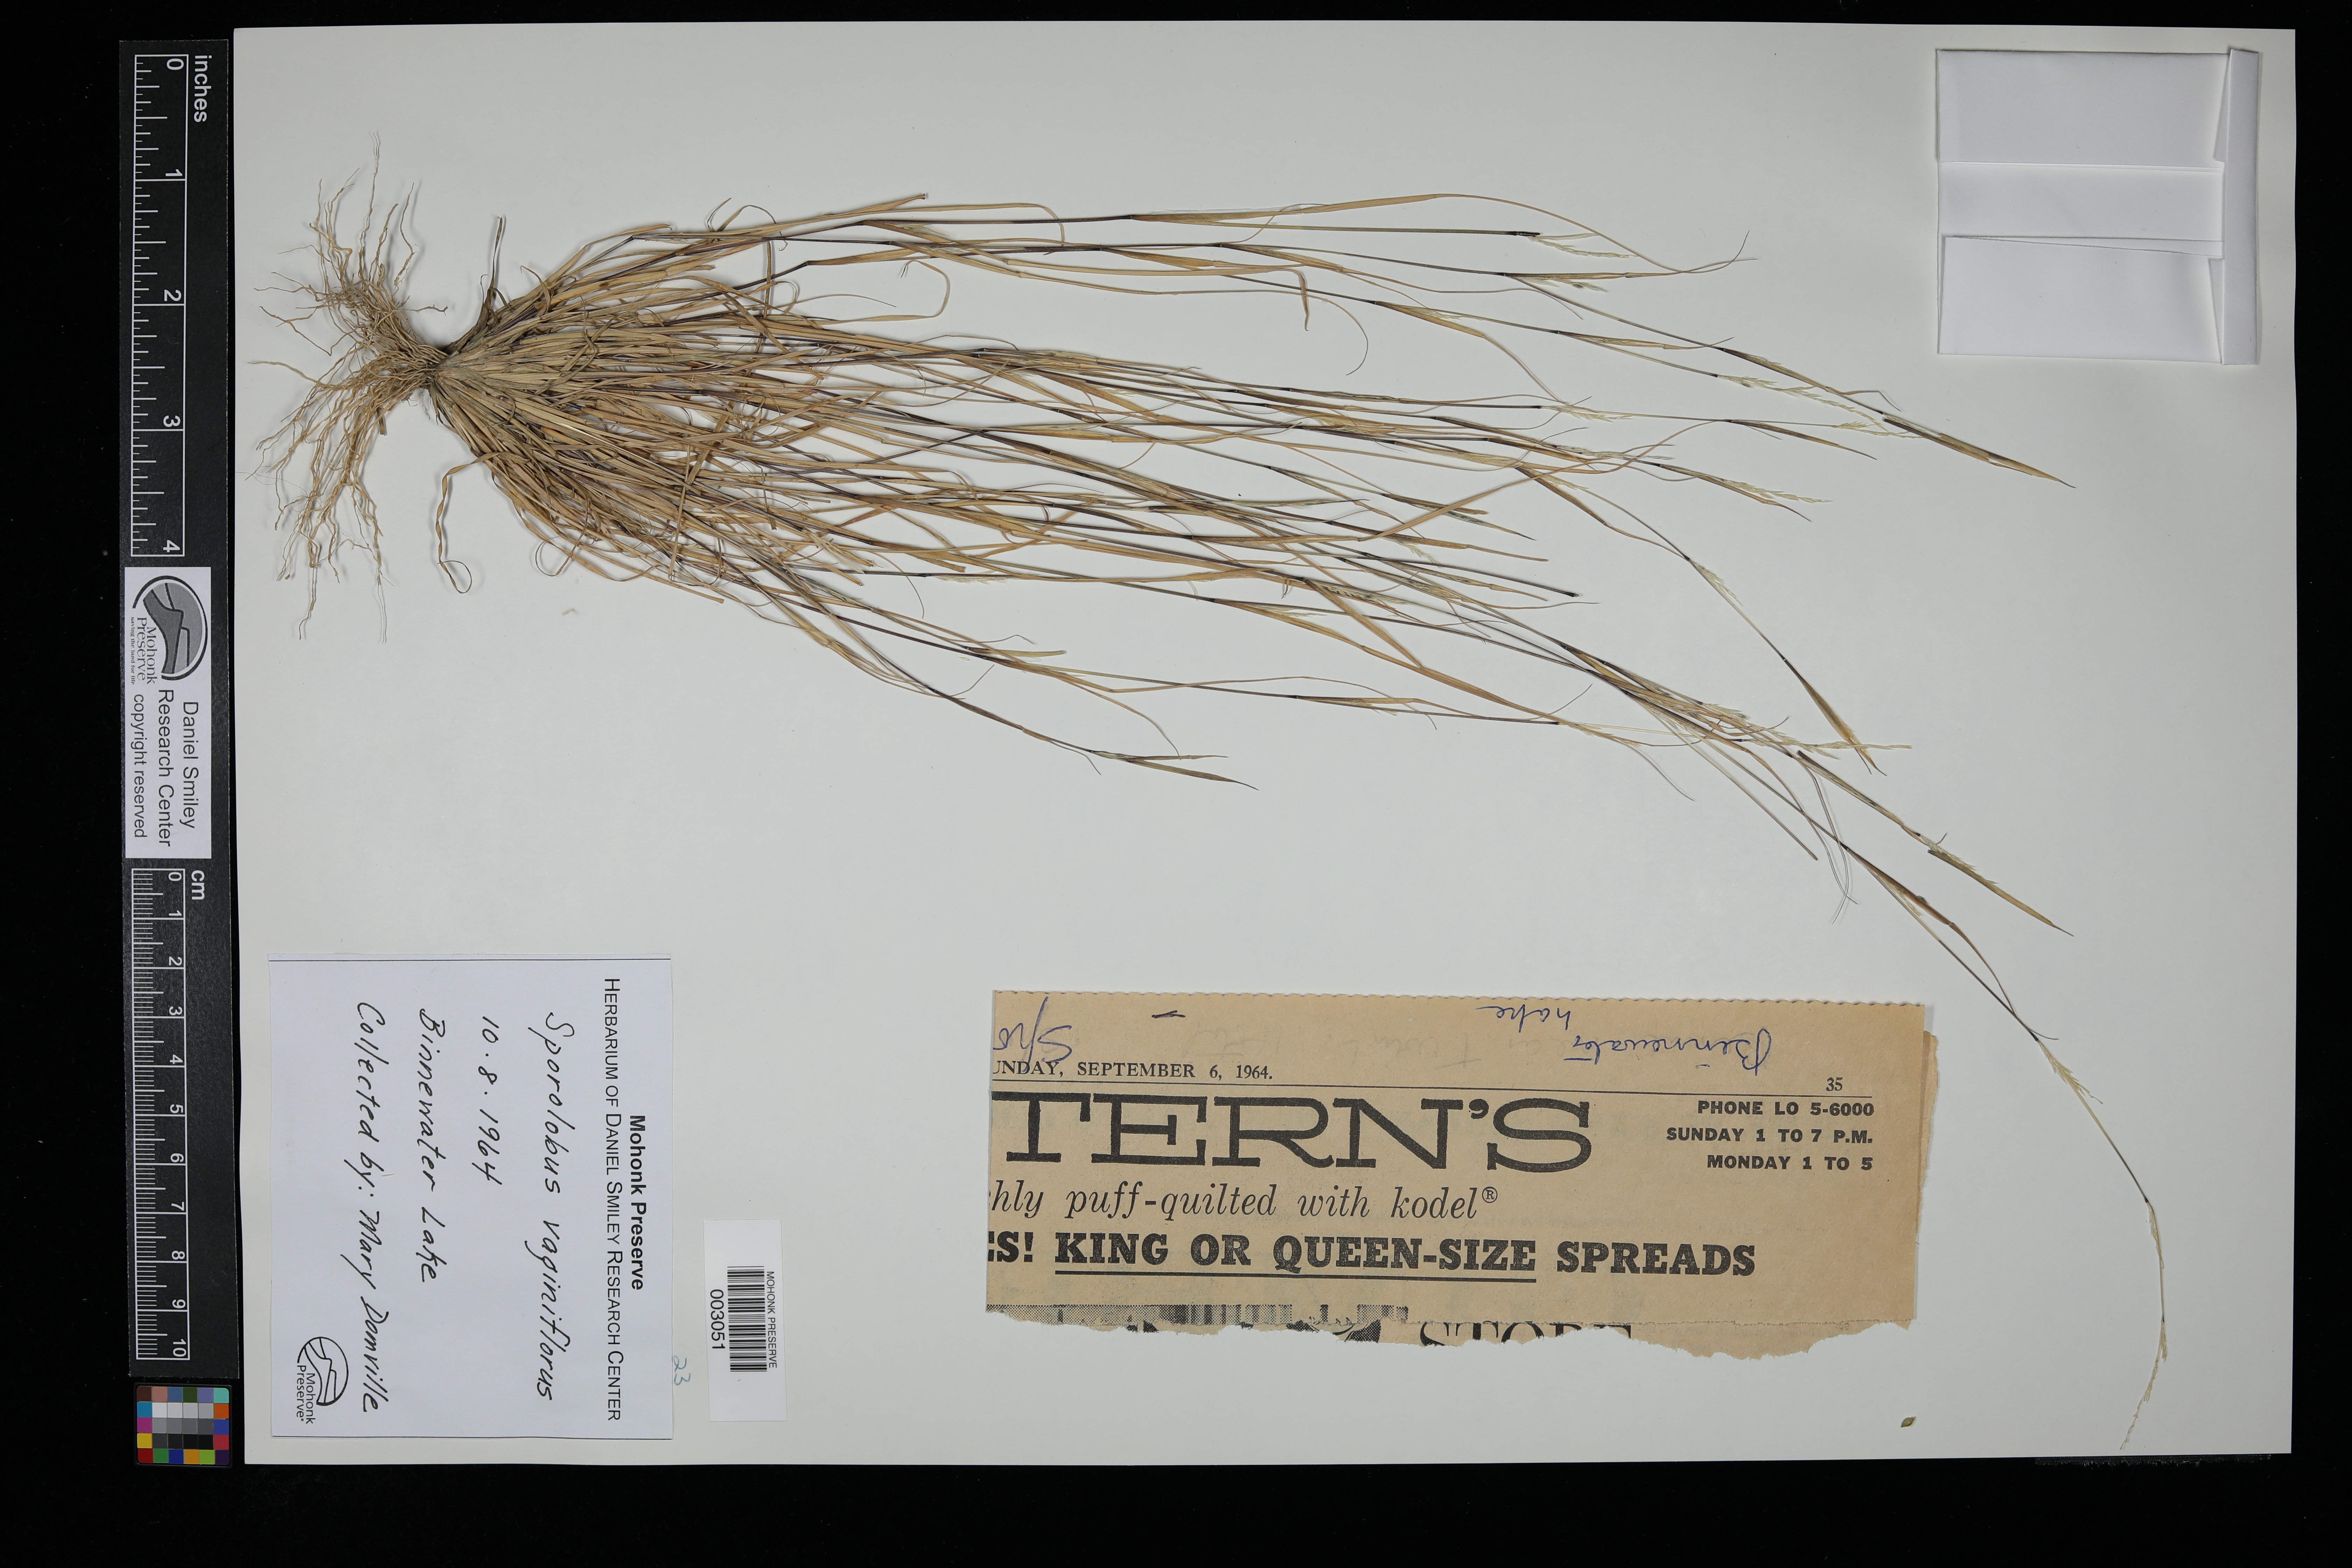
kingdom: Plantae
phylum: Tracheophyta
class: Liliopsida
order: Poales
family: Poaceae
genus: Sporobolus
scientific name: Sporobolus vaginiflorus
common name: Poverty dropseed
